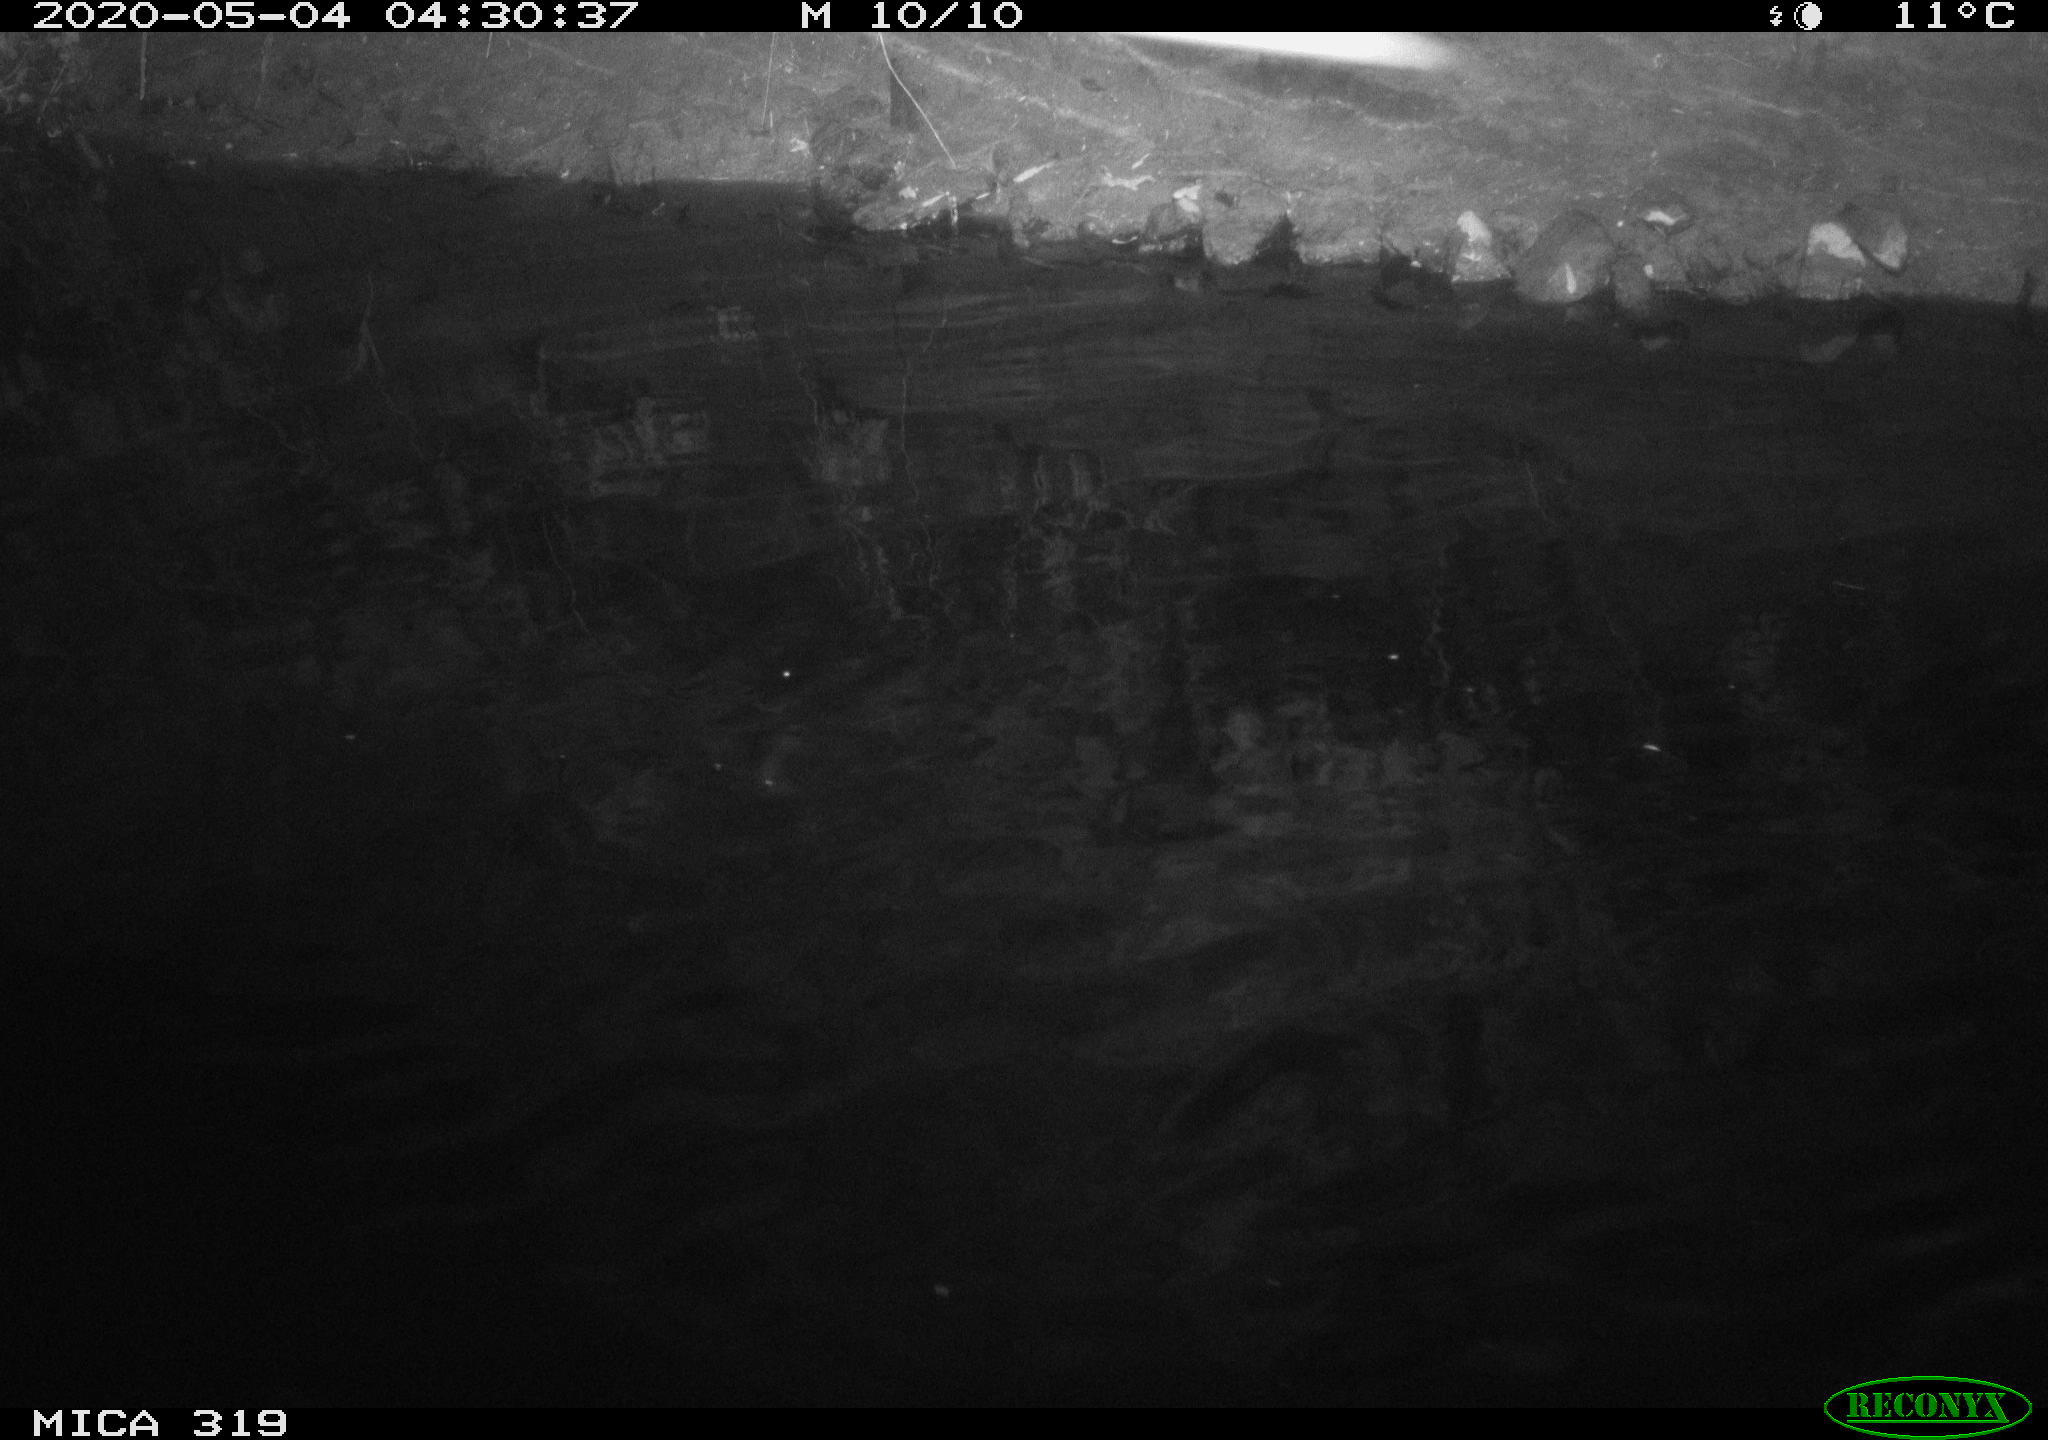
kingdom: Animalia
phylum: Chordata
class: Aves
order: Anseriformes
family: Anatidae
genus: Anas
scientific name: Anas platyrhynchos
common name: Mallard
